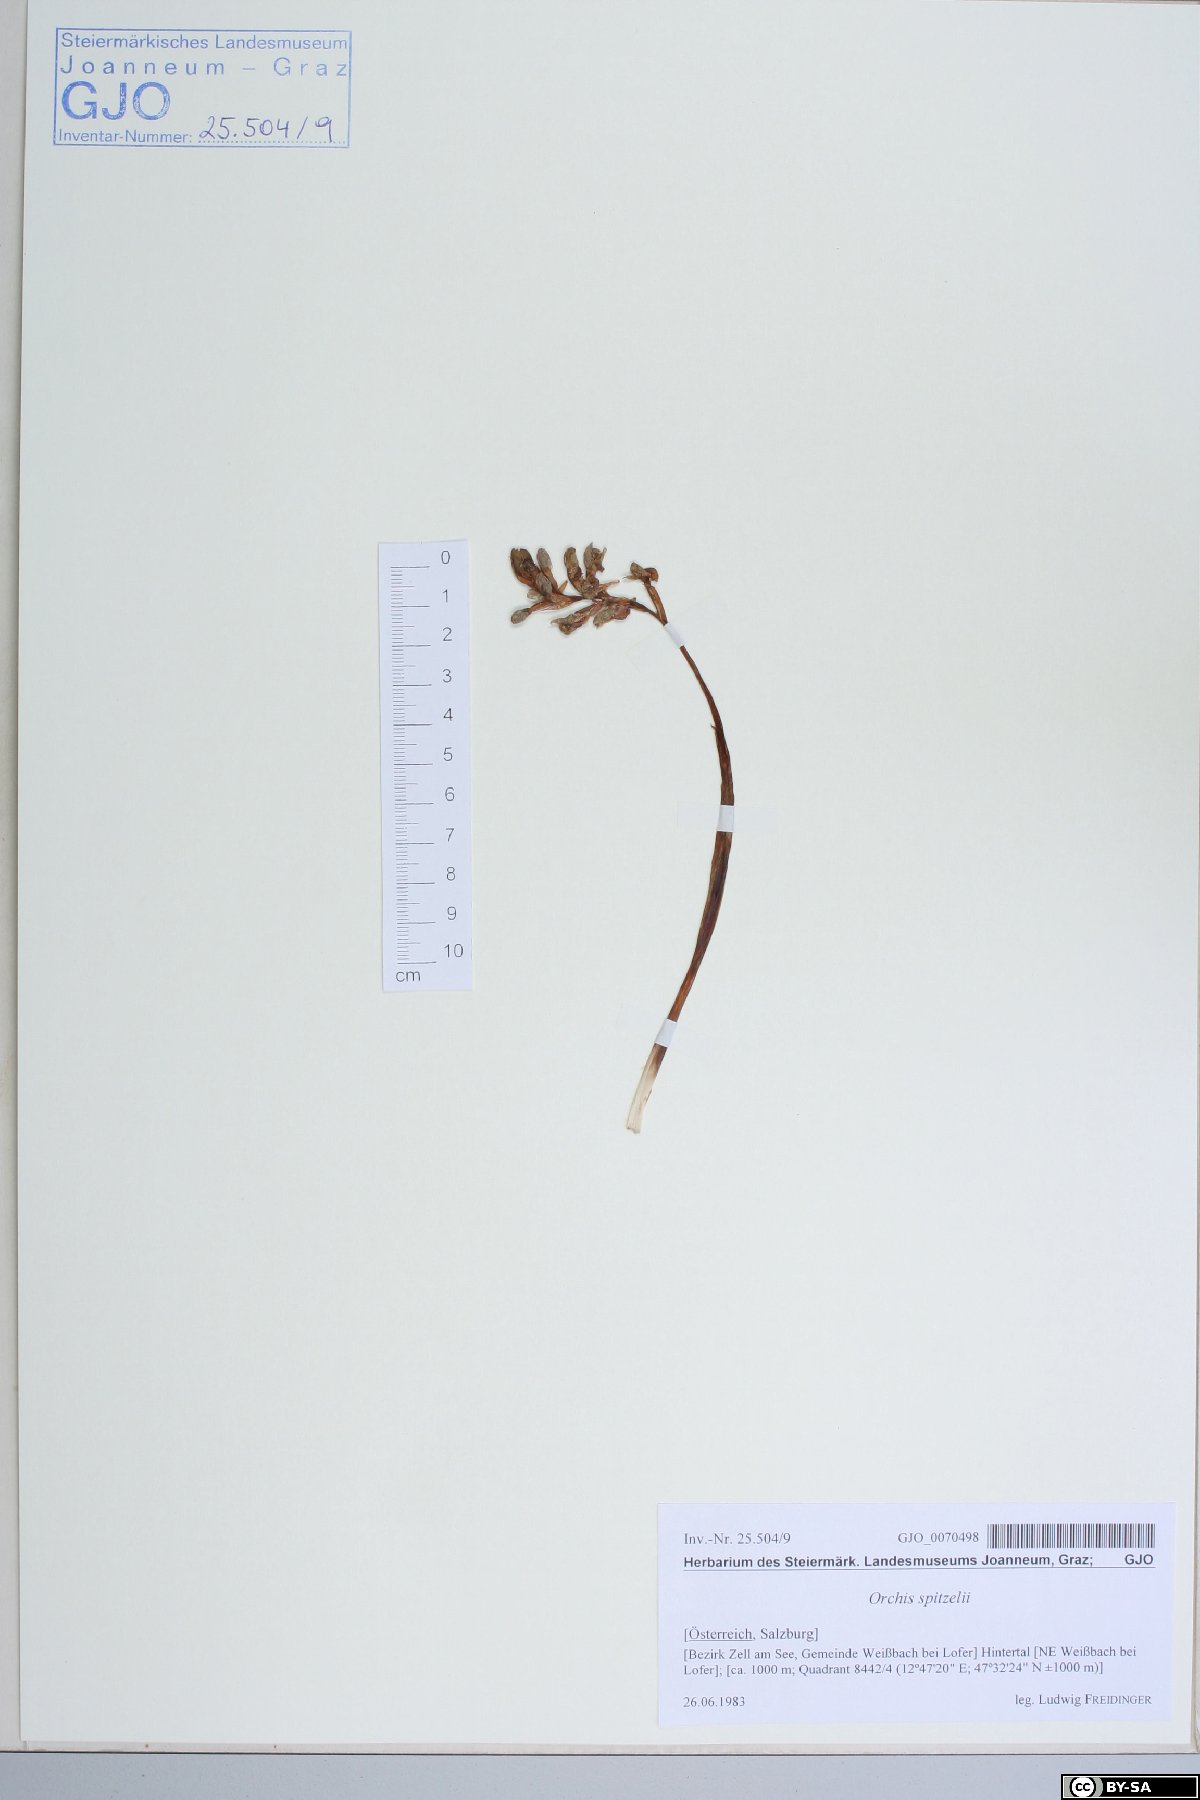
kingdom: Plantae
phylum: Tracheophyta
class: Liliopsida
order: Asparagales
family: Orchidaceae
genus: Orchis
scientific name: Orchis spitzelii
